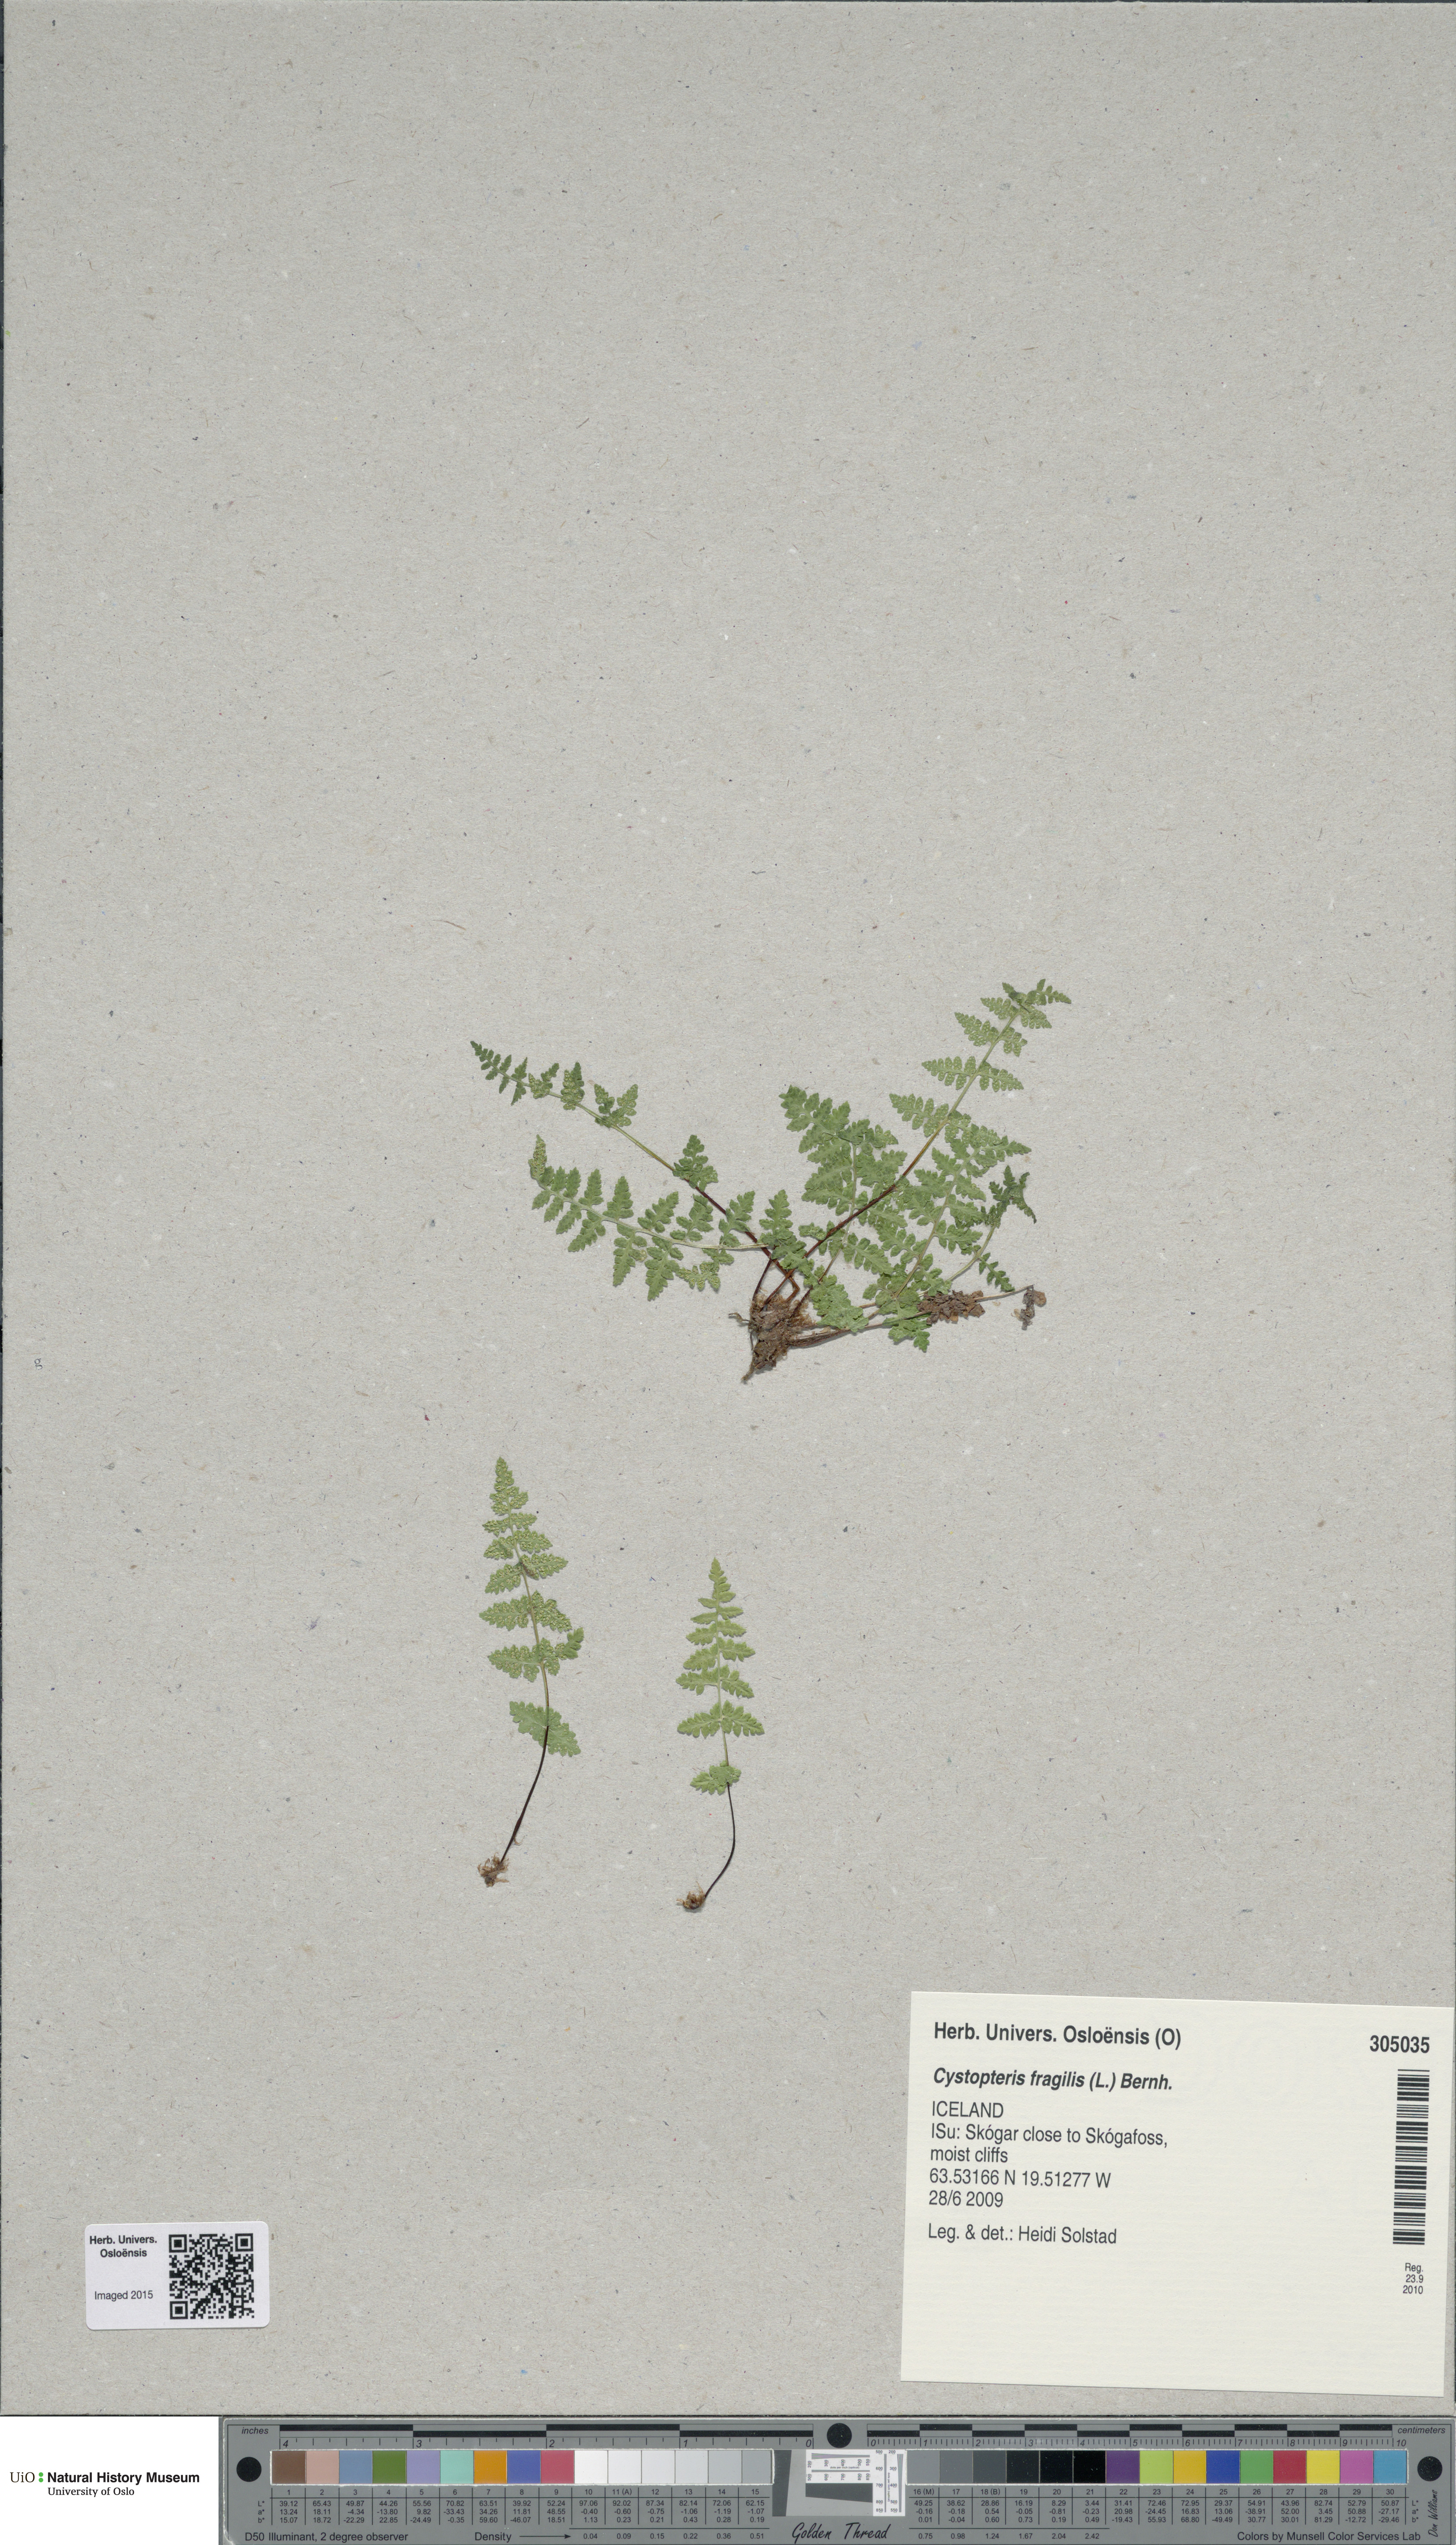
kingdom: Plantae
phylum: Tracheophyta
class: Polypodiopsida
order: Polypodiales
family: Cystopteridaceae
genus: Cystopteris
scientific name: Cystopteris fragilis
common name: Brittle bladder fern
